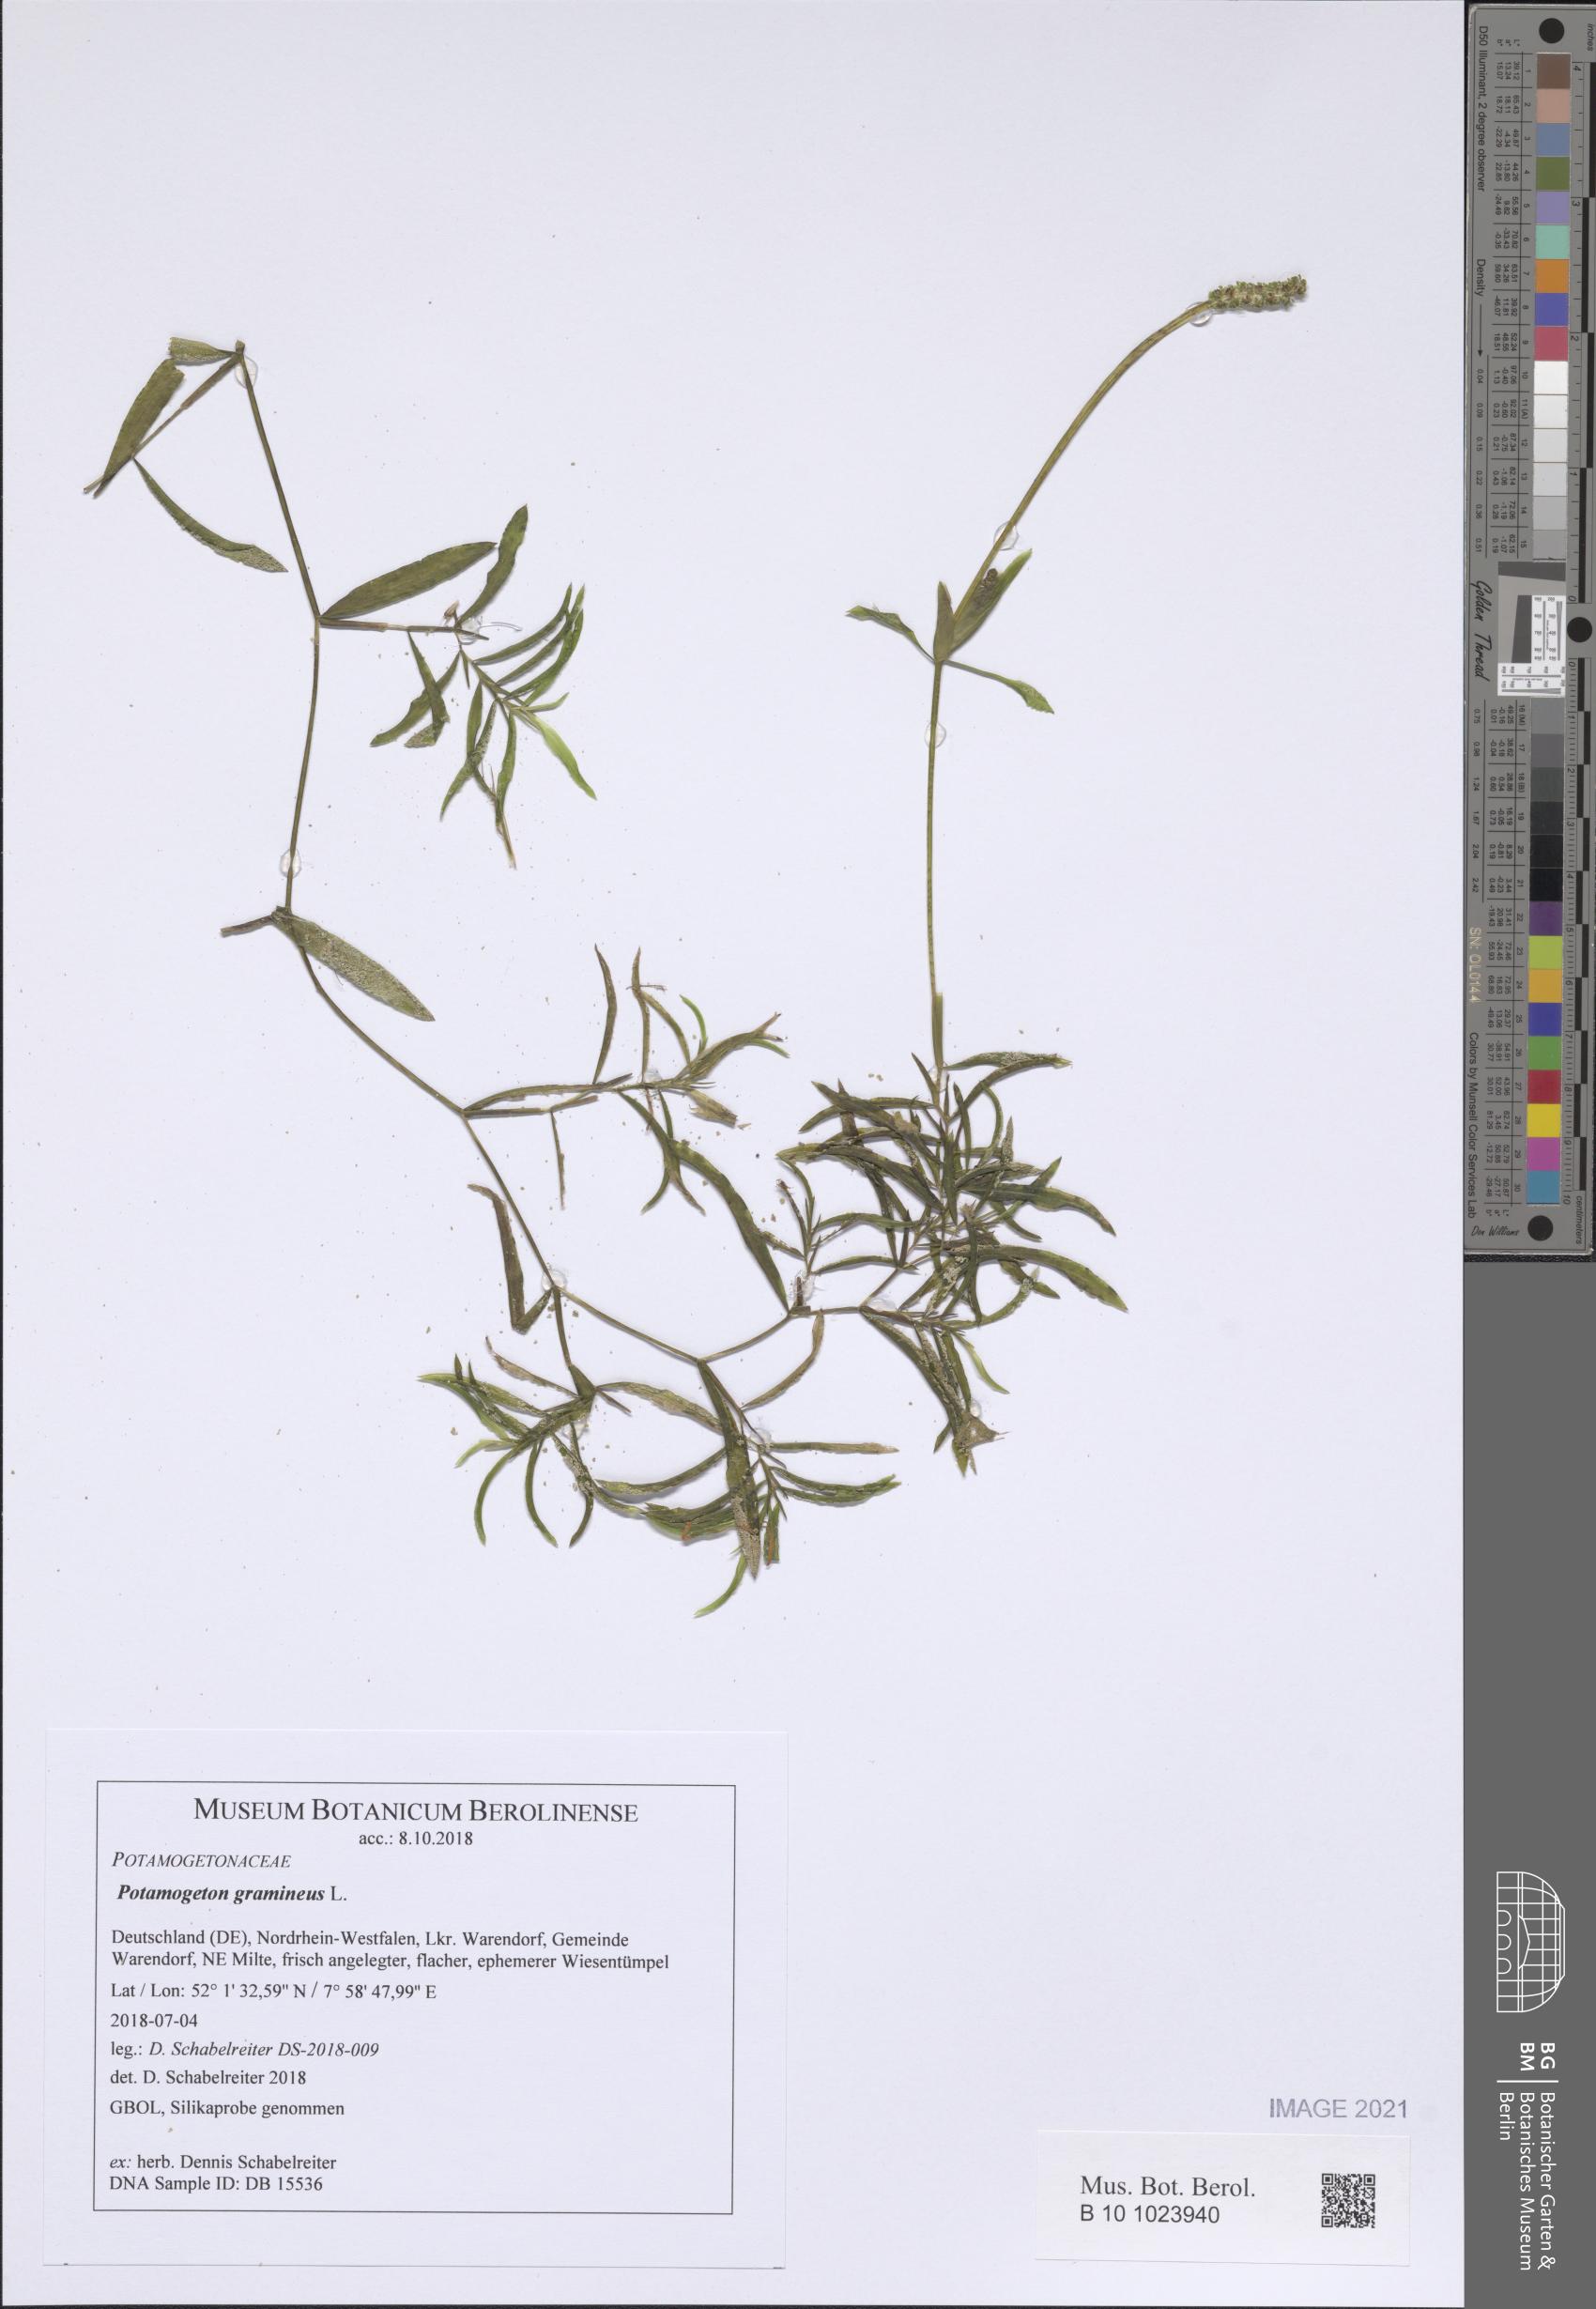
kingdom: Plantae
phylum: Tracheophyta
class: Liliopsida
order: Alismatales
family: Potamogetonaceae
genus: Potamogeton
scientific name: Potamogeton gramineus
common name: Various-leaved pondweed
